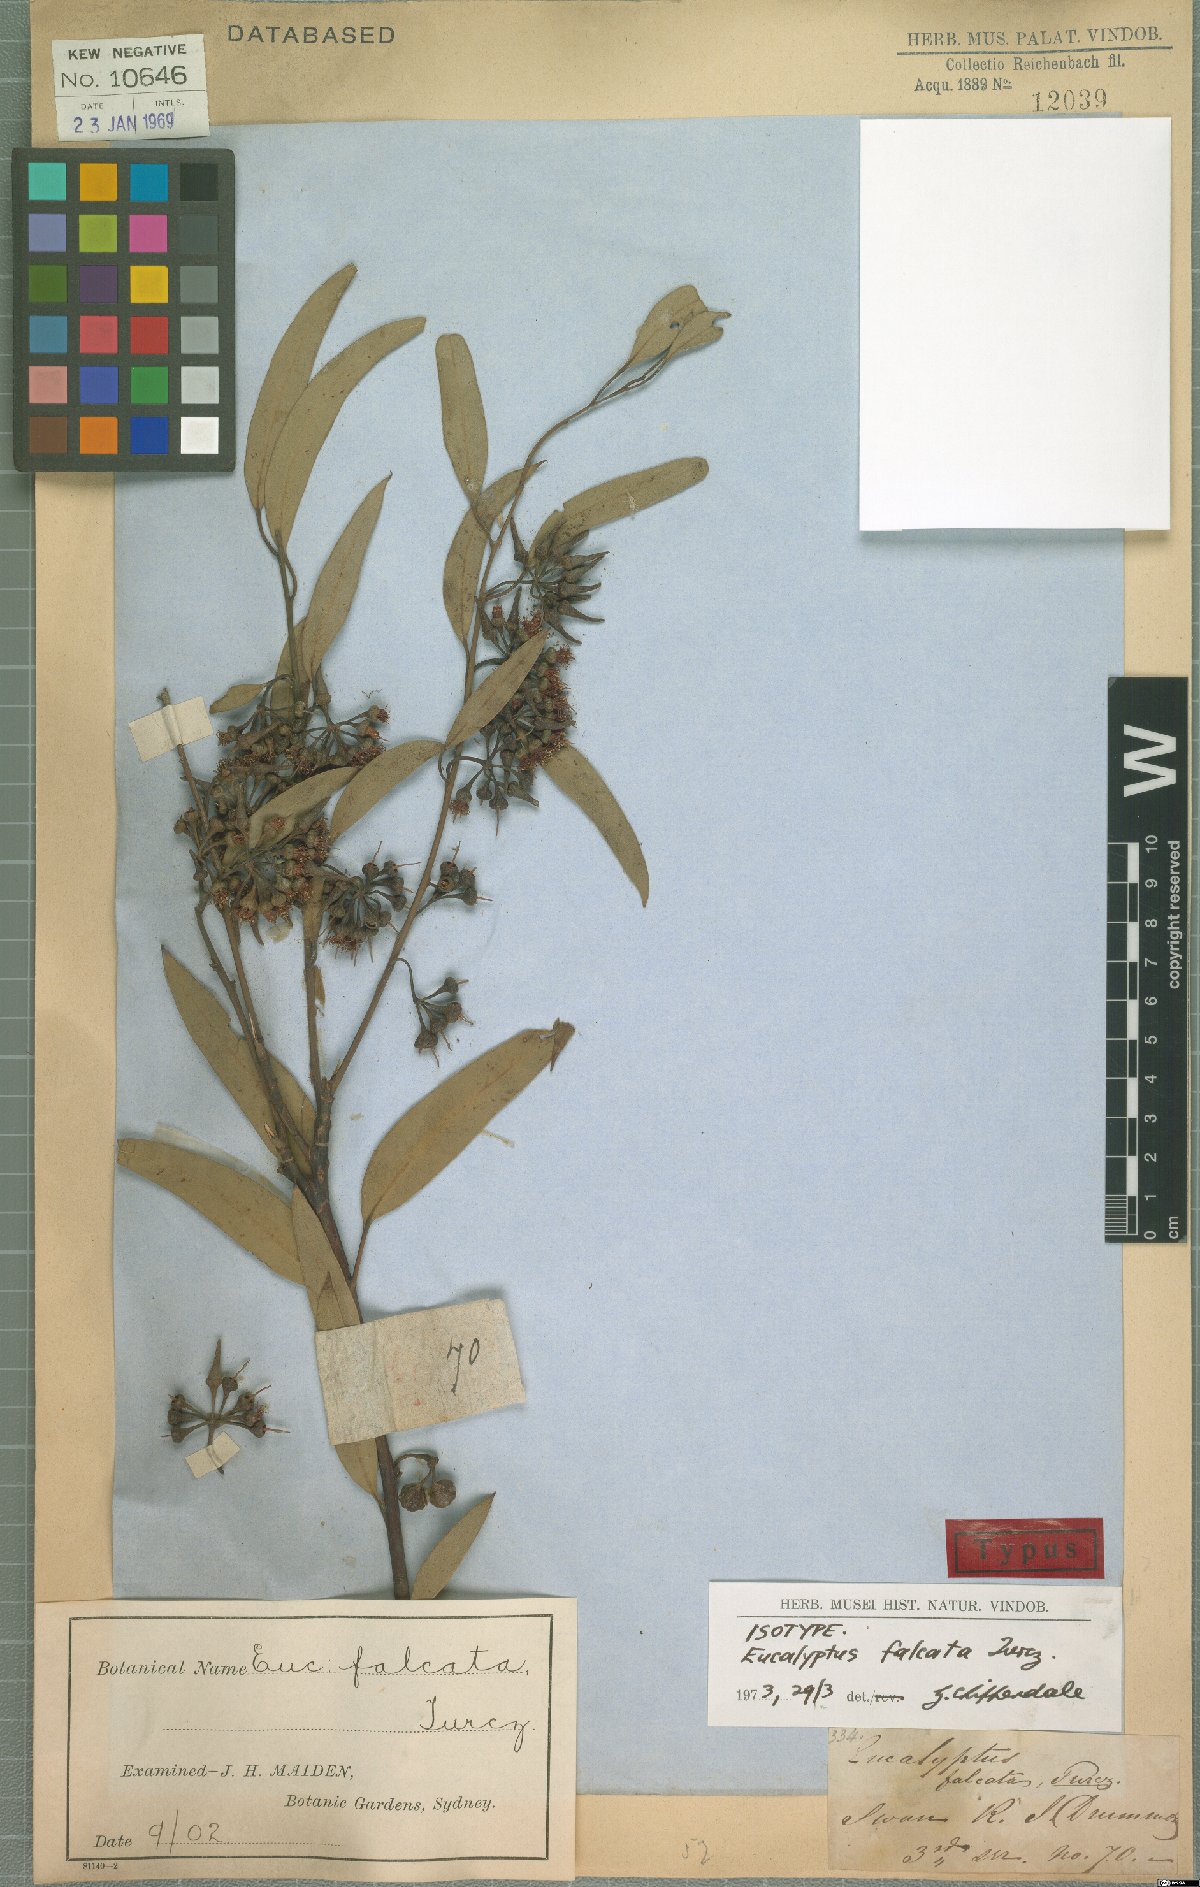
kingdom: Plantae
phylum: Tracheophyta
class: Magnoliopsida
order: Myrtales
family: Myrtaceae
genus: Eucalyptus
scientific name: Eucalyptus falcata
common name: Silver mallet
